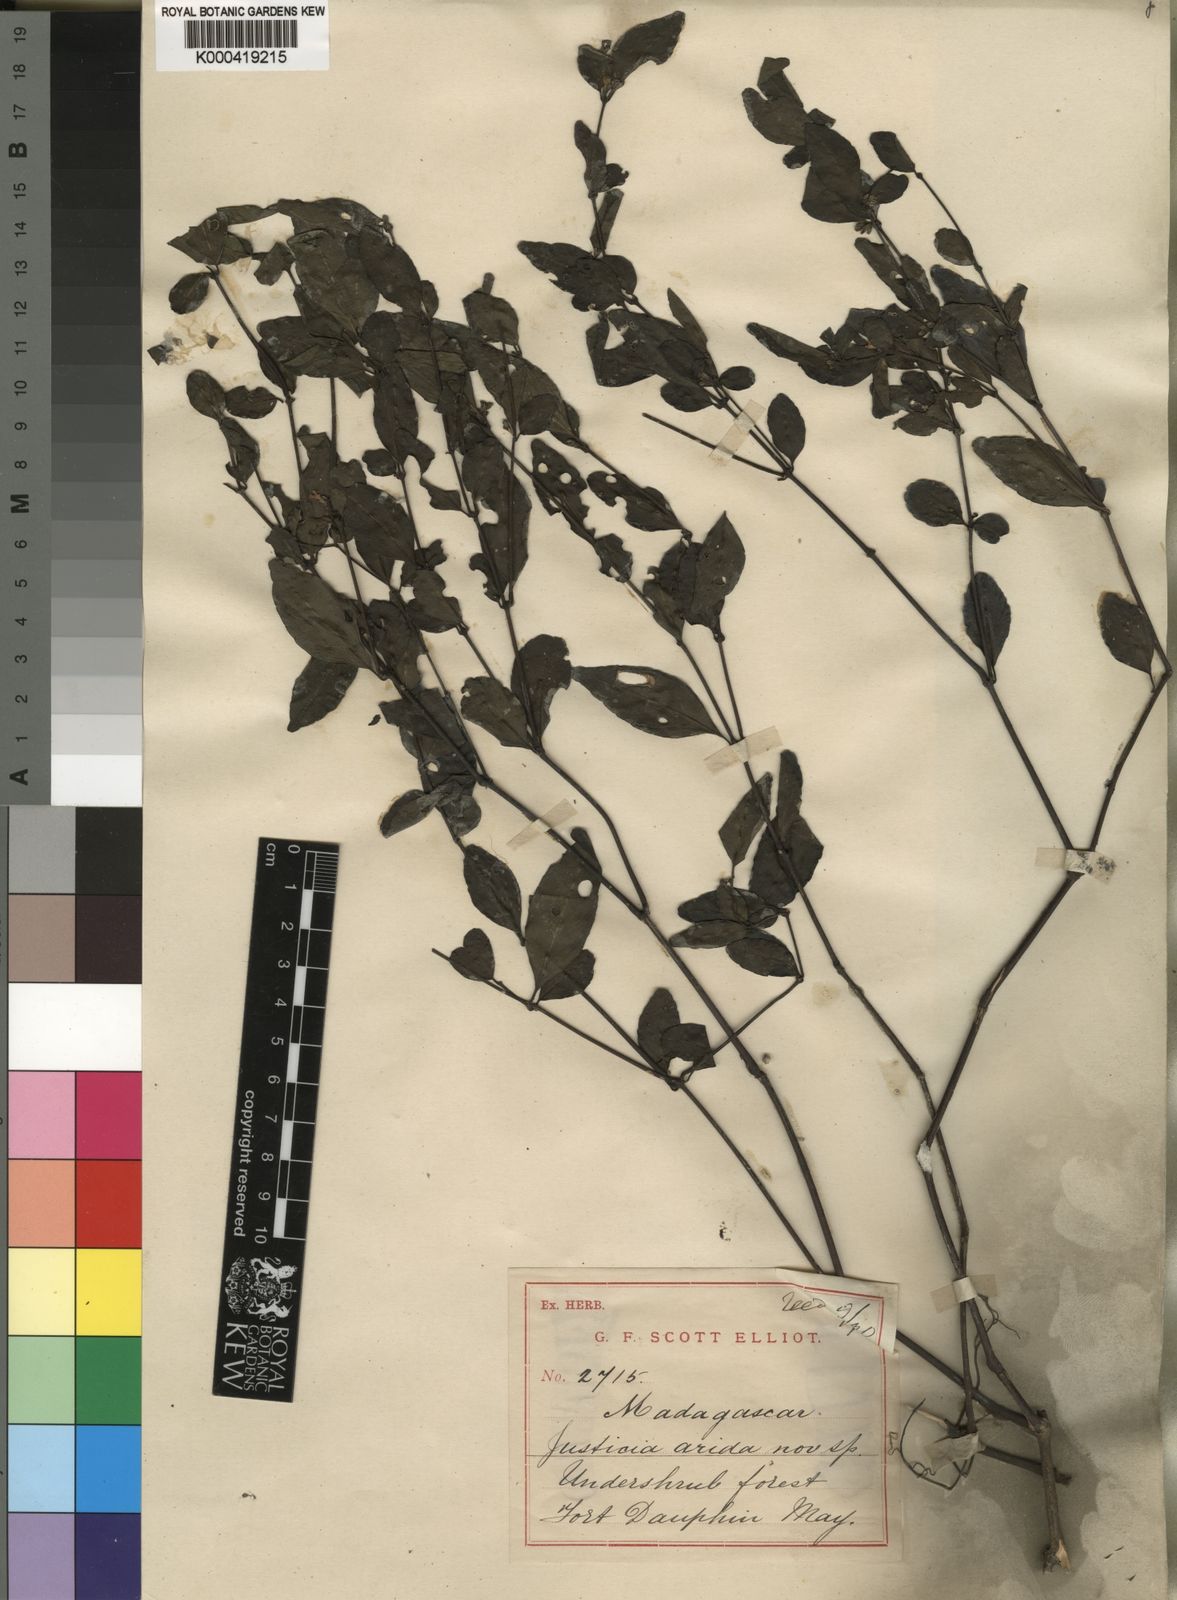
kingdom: Plantae
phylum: Tracheophyta
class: Magnoliopsida
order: Lamiales
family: Acanthaceae
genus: Anisostachya
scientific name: Anisostachya arida
